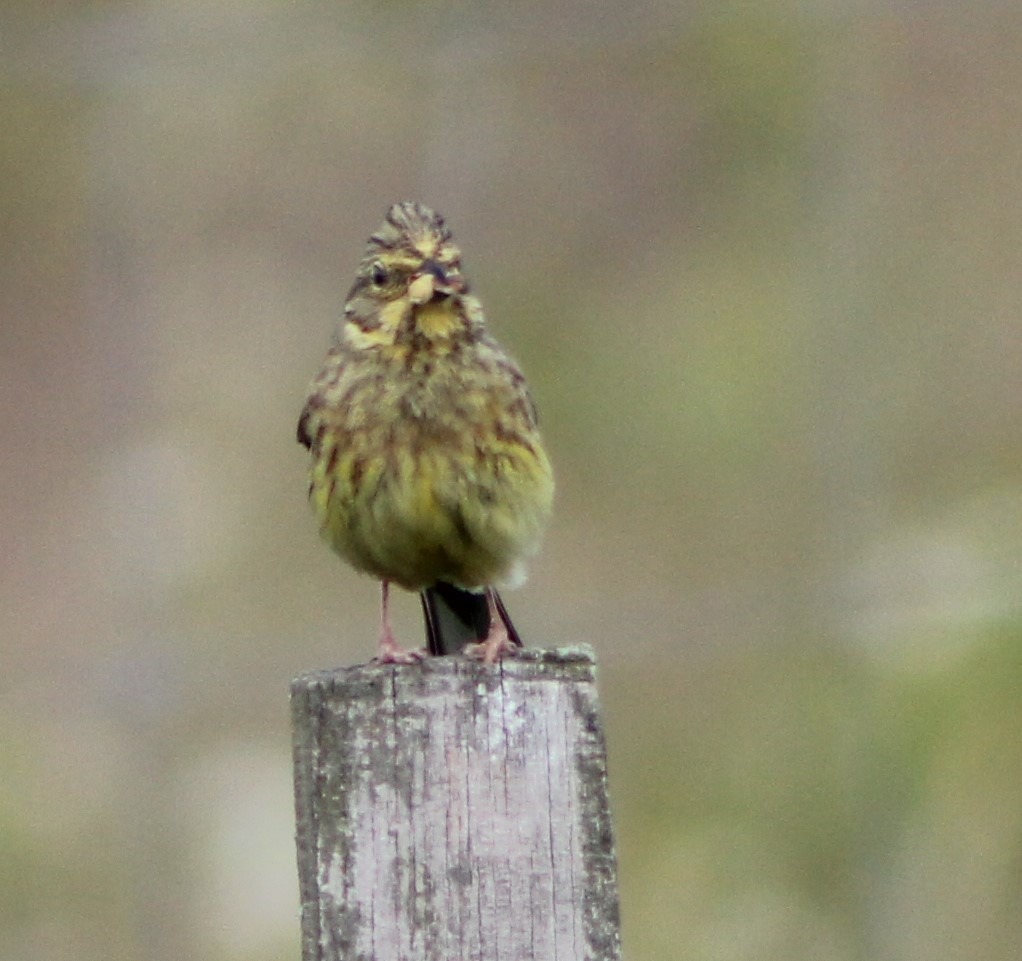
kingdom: Animalia
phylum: Chordata
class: Aves
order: Passeriformes
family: Emberizidae
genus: Emberiza
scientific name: Emberiza citrinella
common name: Gulspurv
